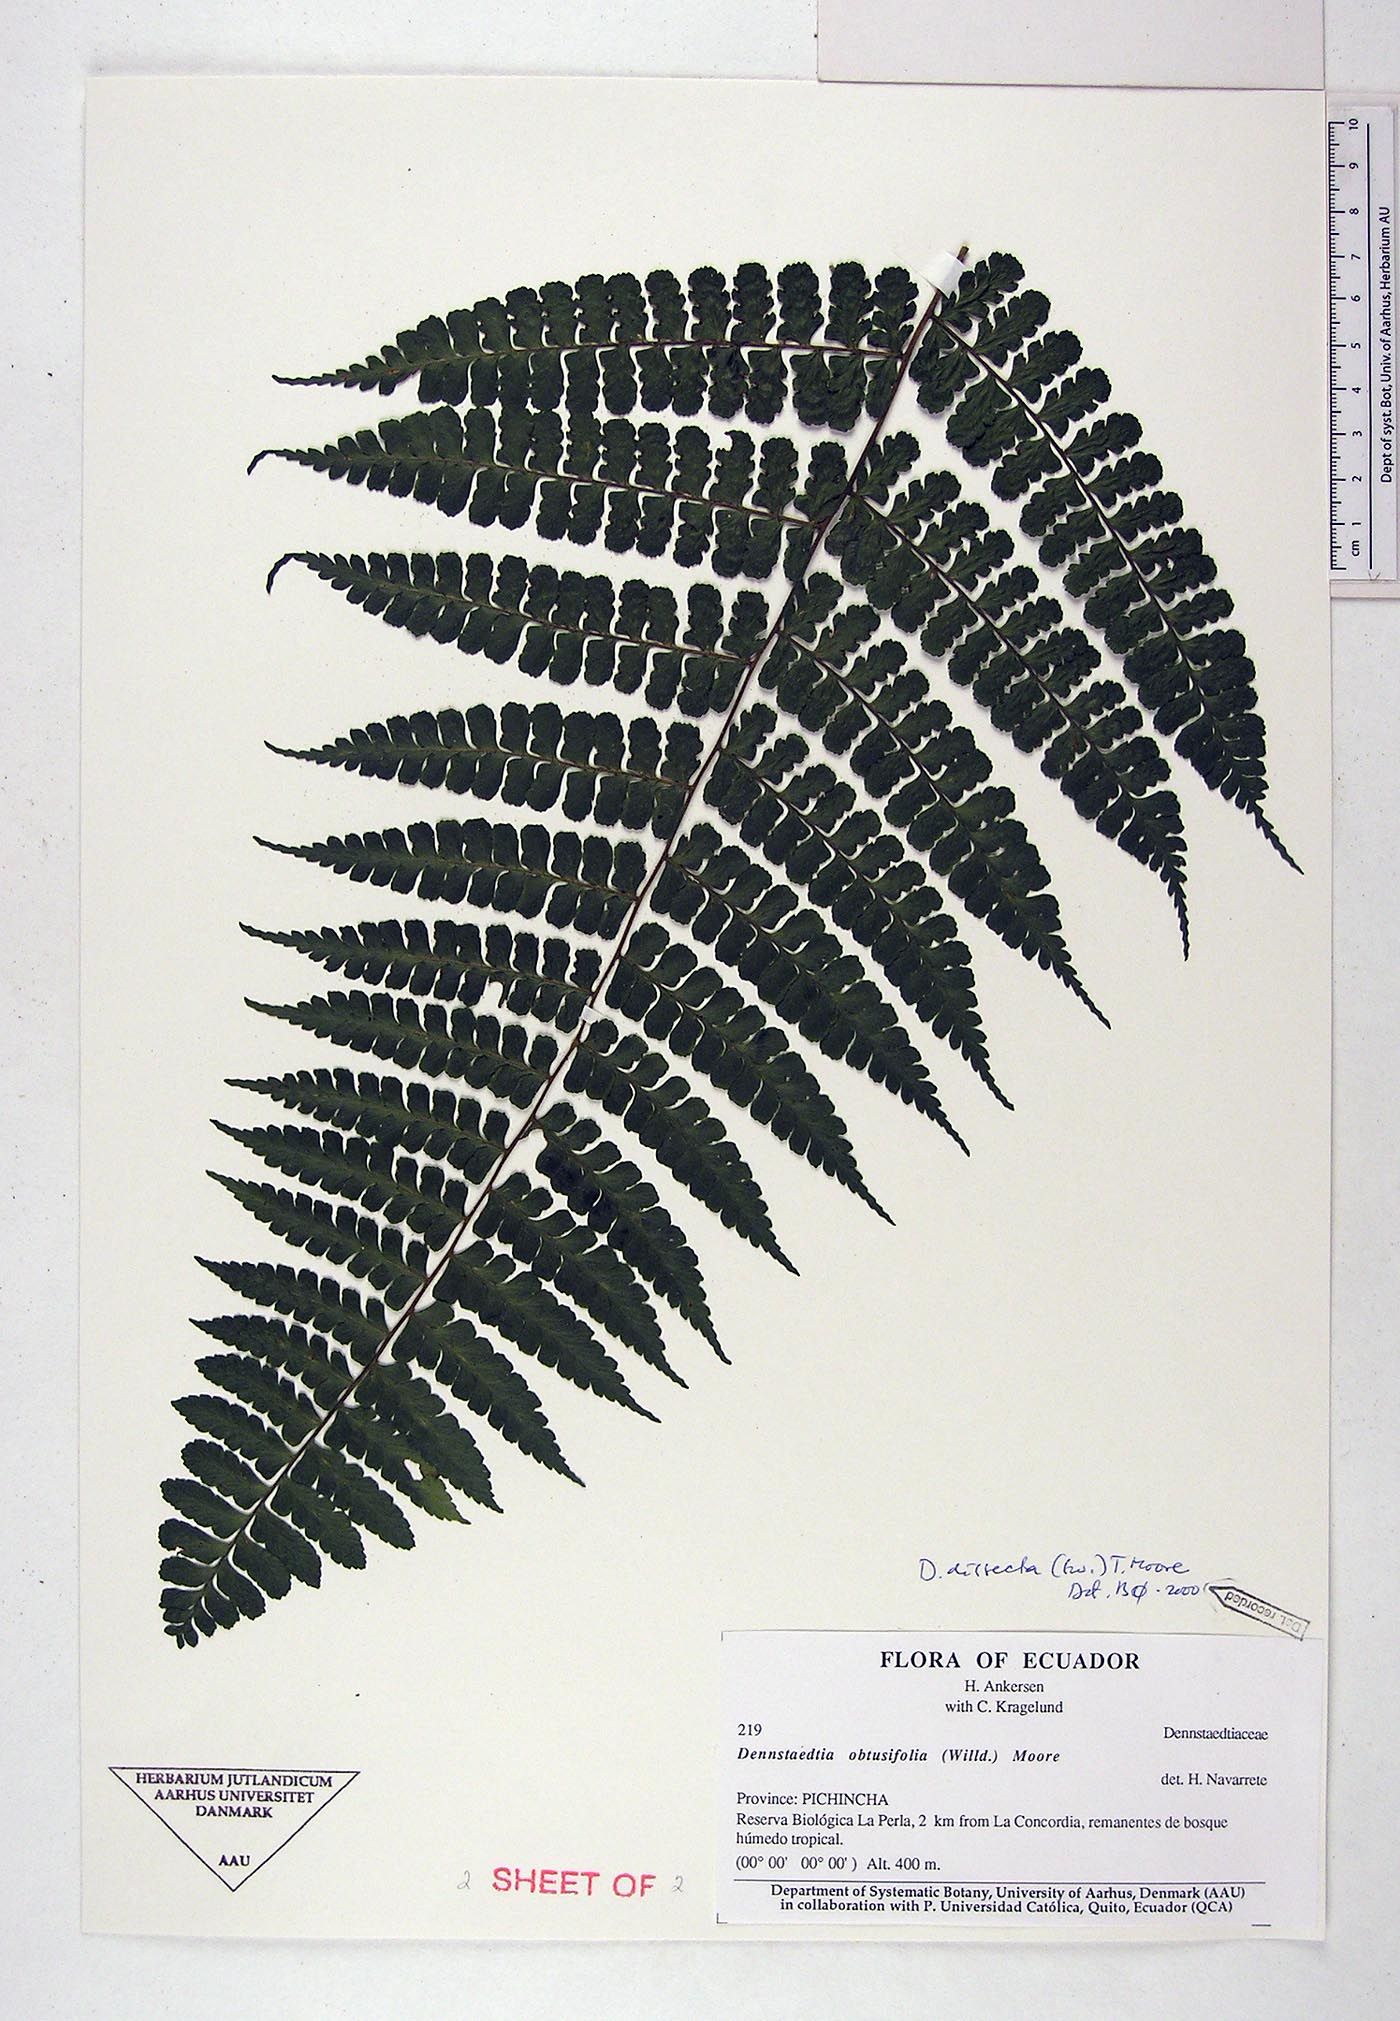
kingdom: Plantae
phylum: Tracheophyta
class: Polypodiopsida
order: Polypodiales
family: Dennstaedtiaceae
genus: Dennstaedtia
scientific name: Dennstaedtia dissecta
